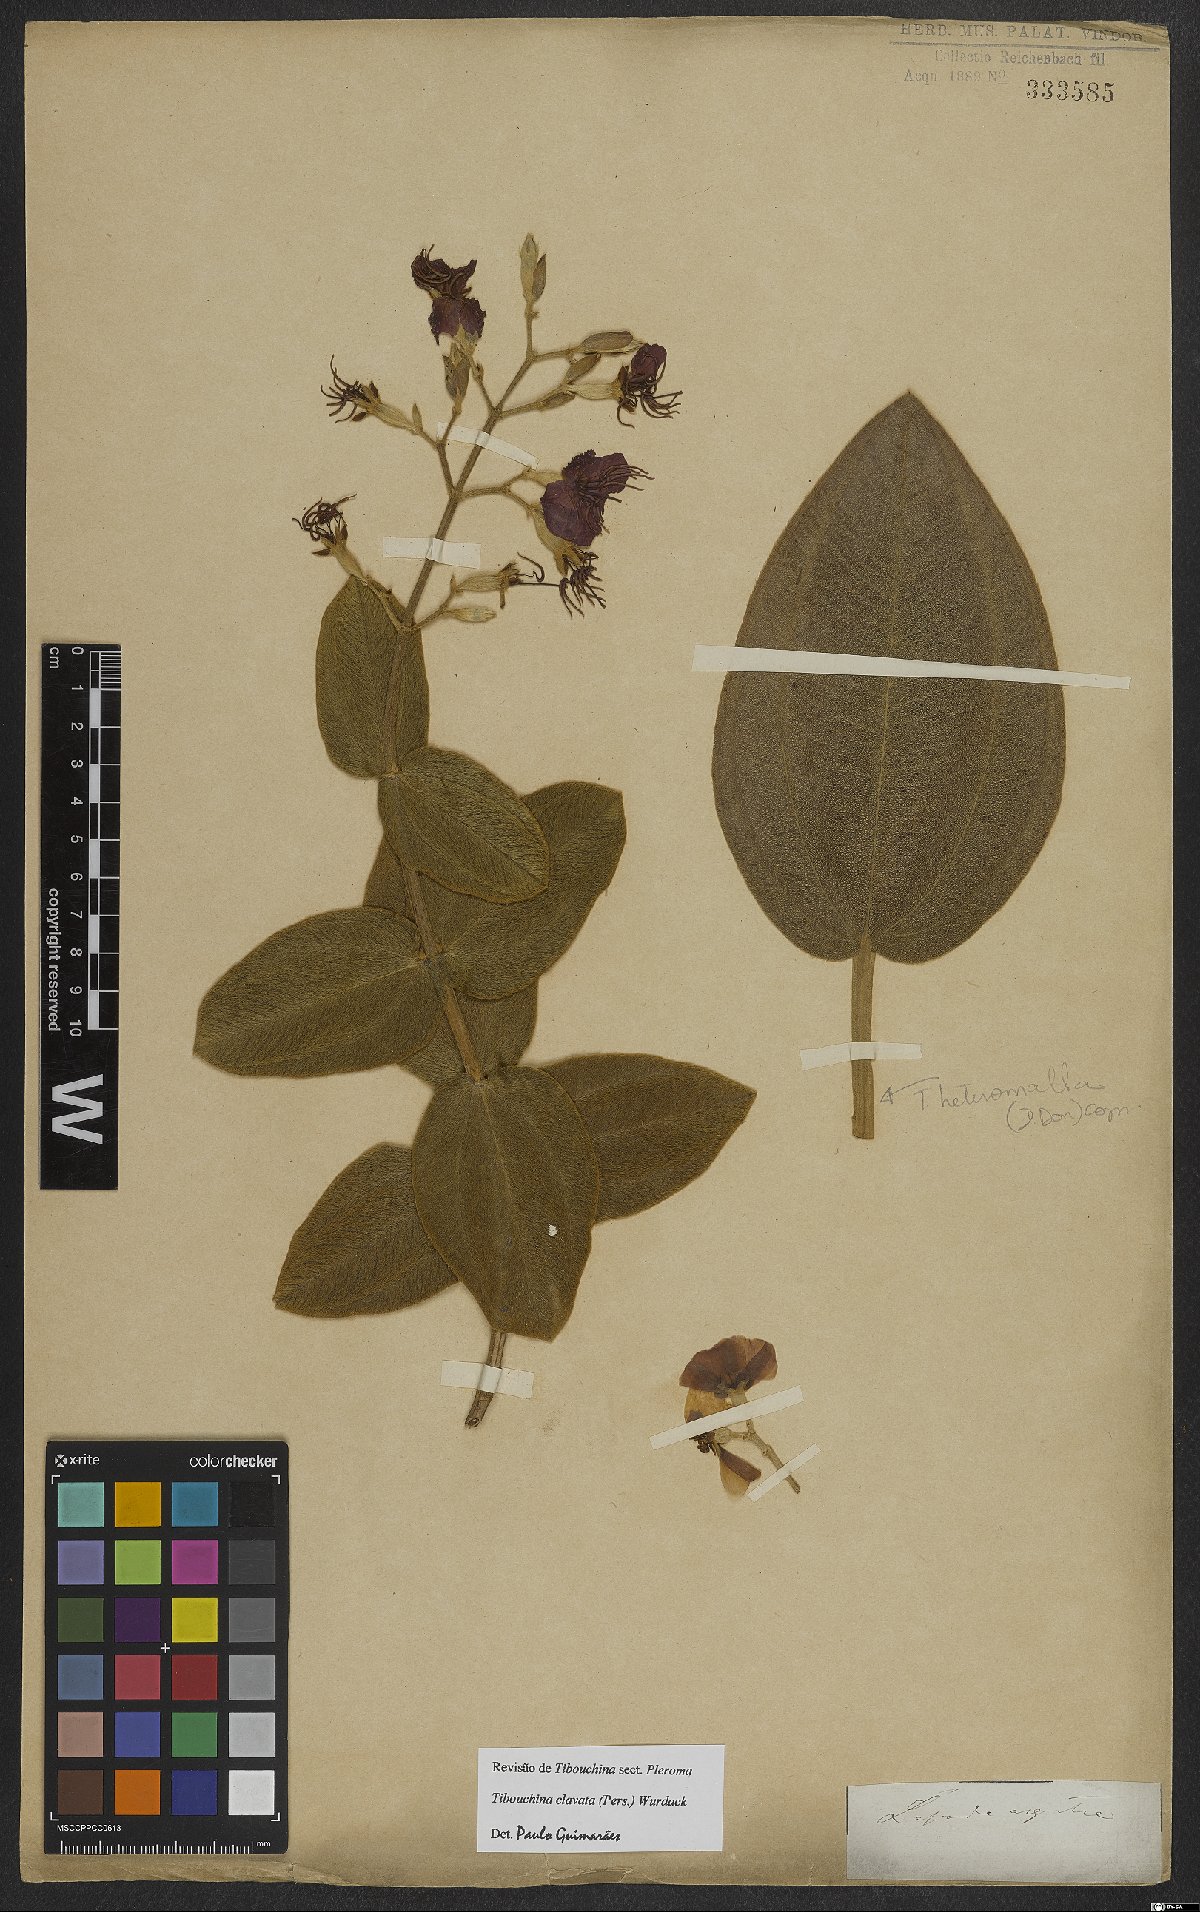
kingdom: Plantae
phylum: Tracheophyta
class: Magnoliopsida
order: Myrtales
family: Melastomataceae
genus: Pleroma
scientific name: Pleroma clavatum
